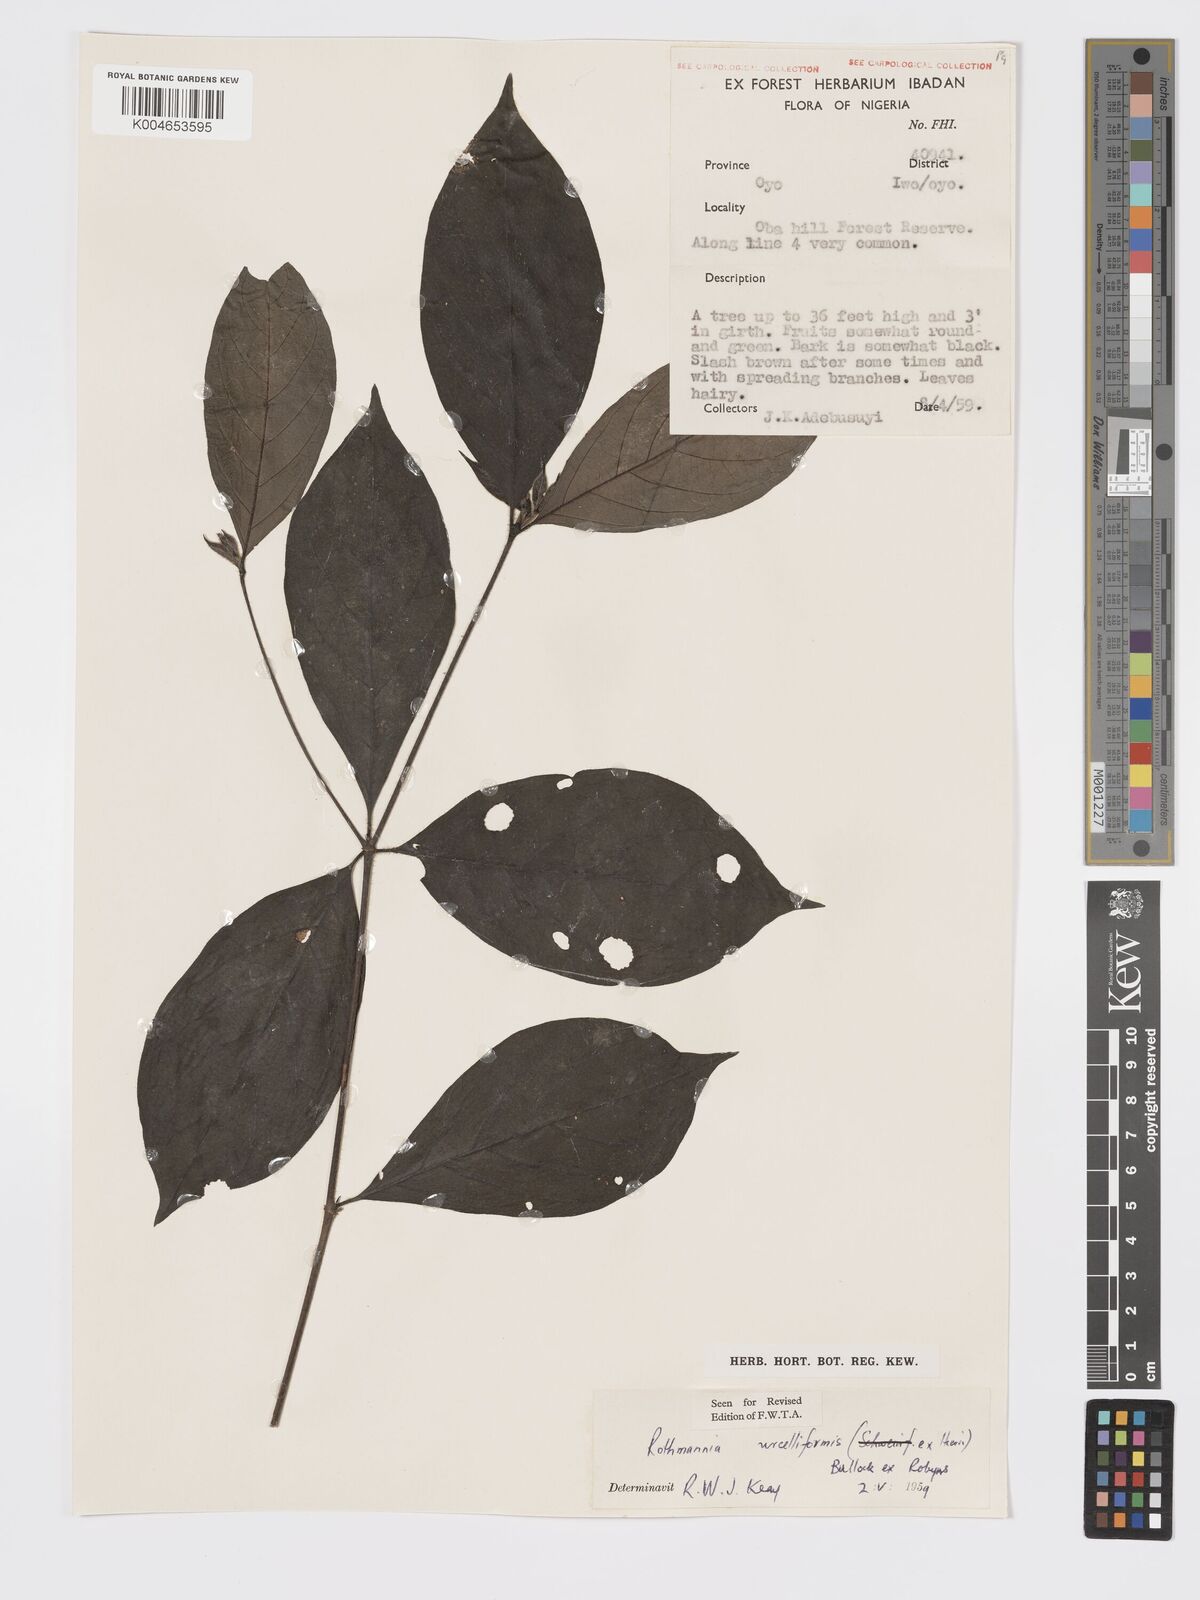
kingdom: Plantae
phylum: Tracheophyta
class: Magnoliopsida
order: Gentianales
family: Rubiaceae
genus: Rothmannia
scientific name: Rothmannia urcelliformis
